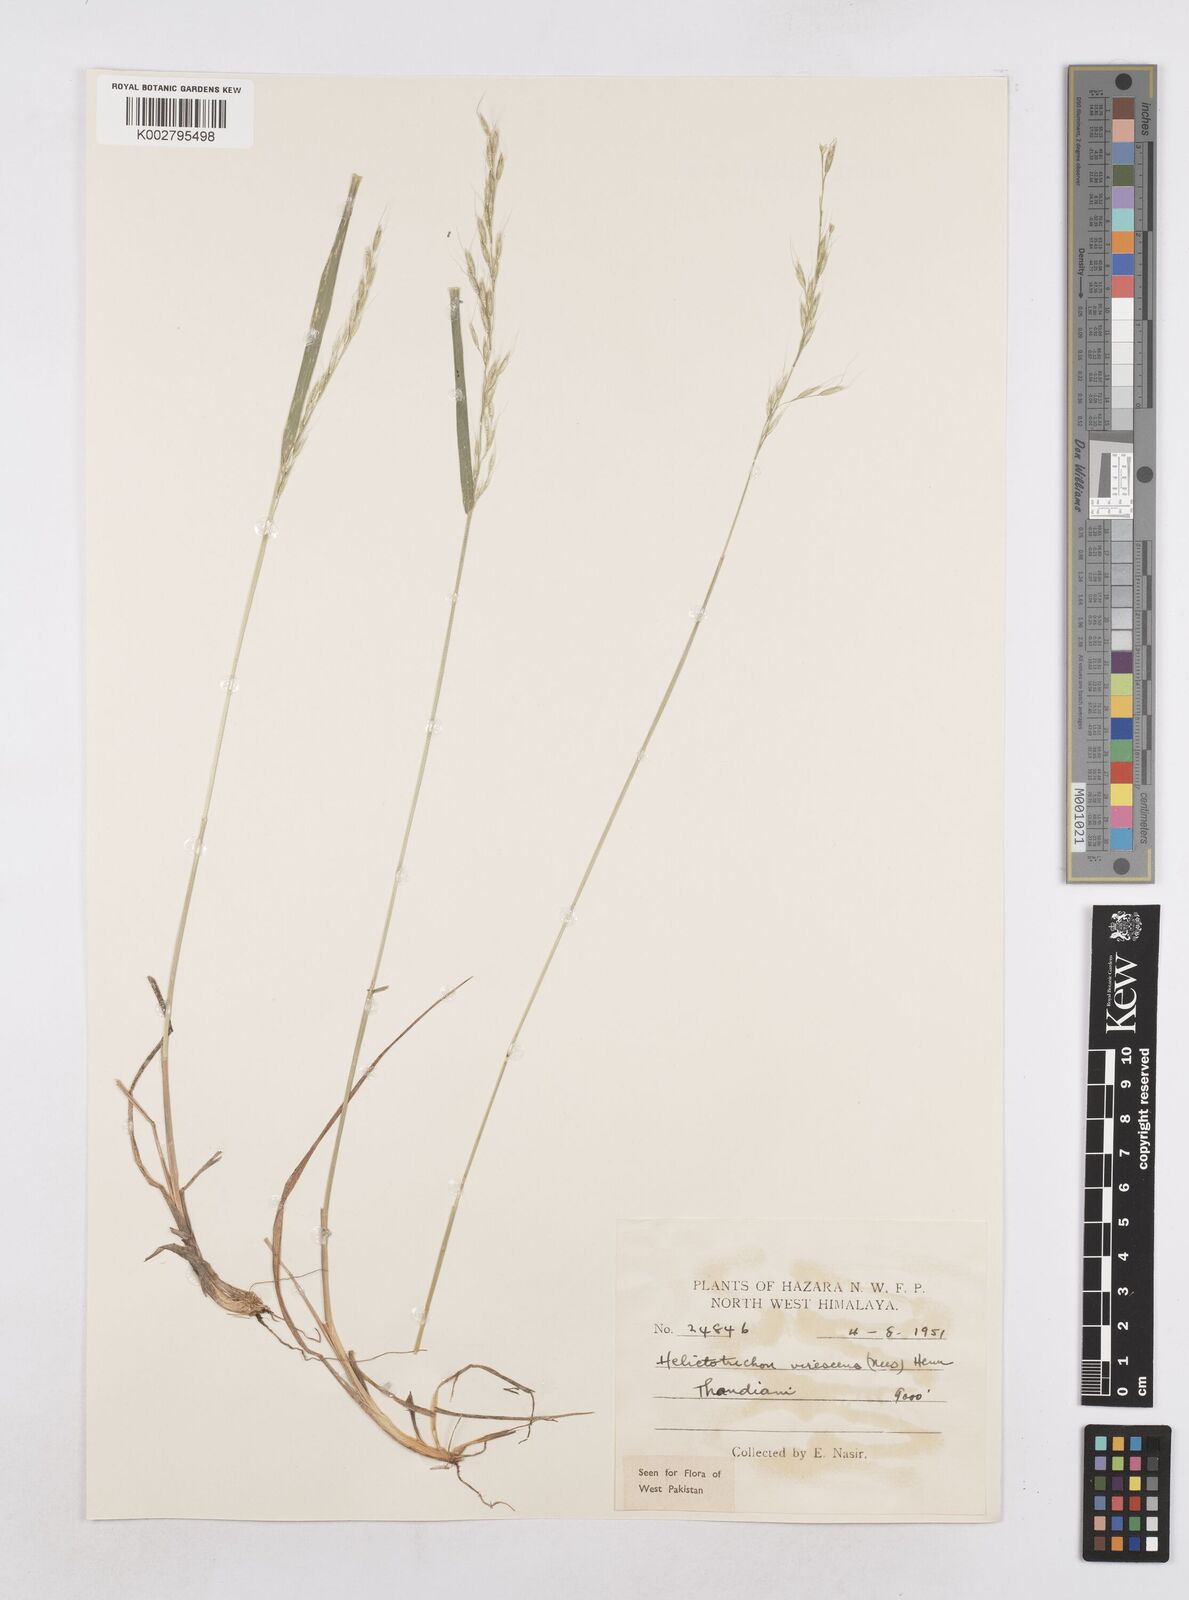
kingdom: Plantae
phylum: Tracheophyta
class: Liliopsida
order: Poales
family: Poaceae
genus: Trisetopsis
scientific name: Trisetopsis junghuhnii
